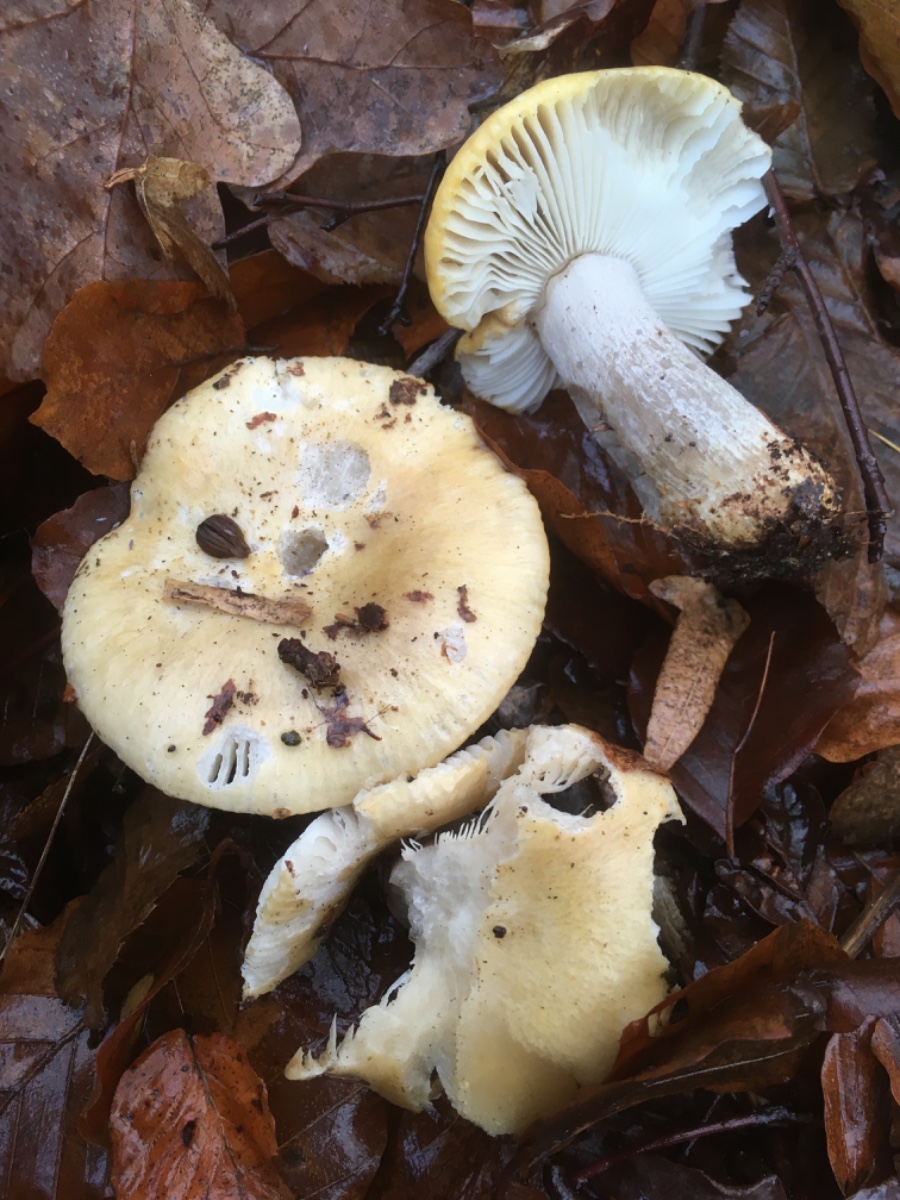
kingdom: Fungi
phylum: Basidiomycota
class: Agaricomycetes
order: Russulales
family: Russulaceae
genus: Russula
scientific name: Russula ochroleuca
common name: okkergul skørhat
